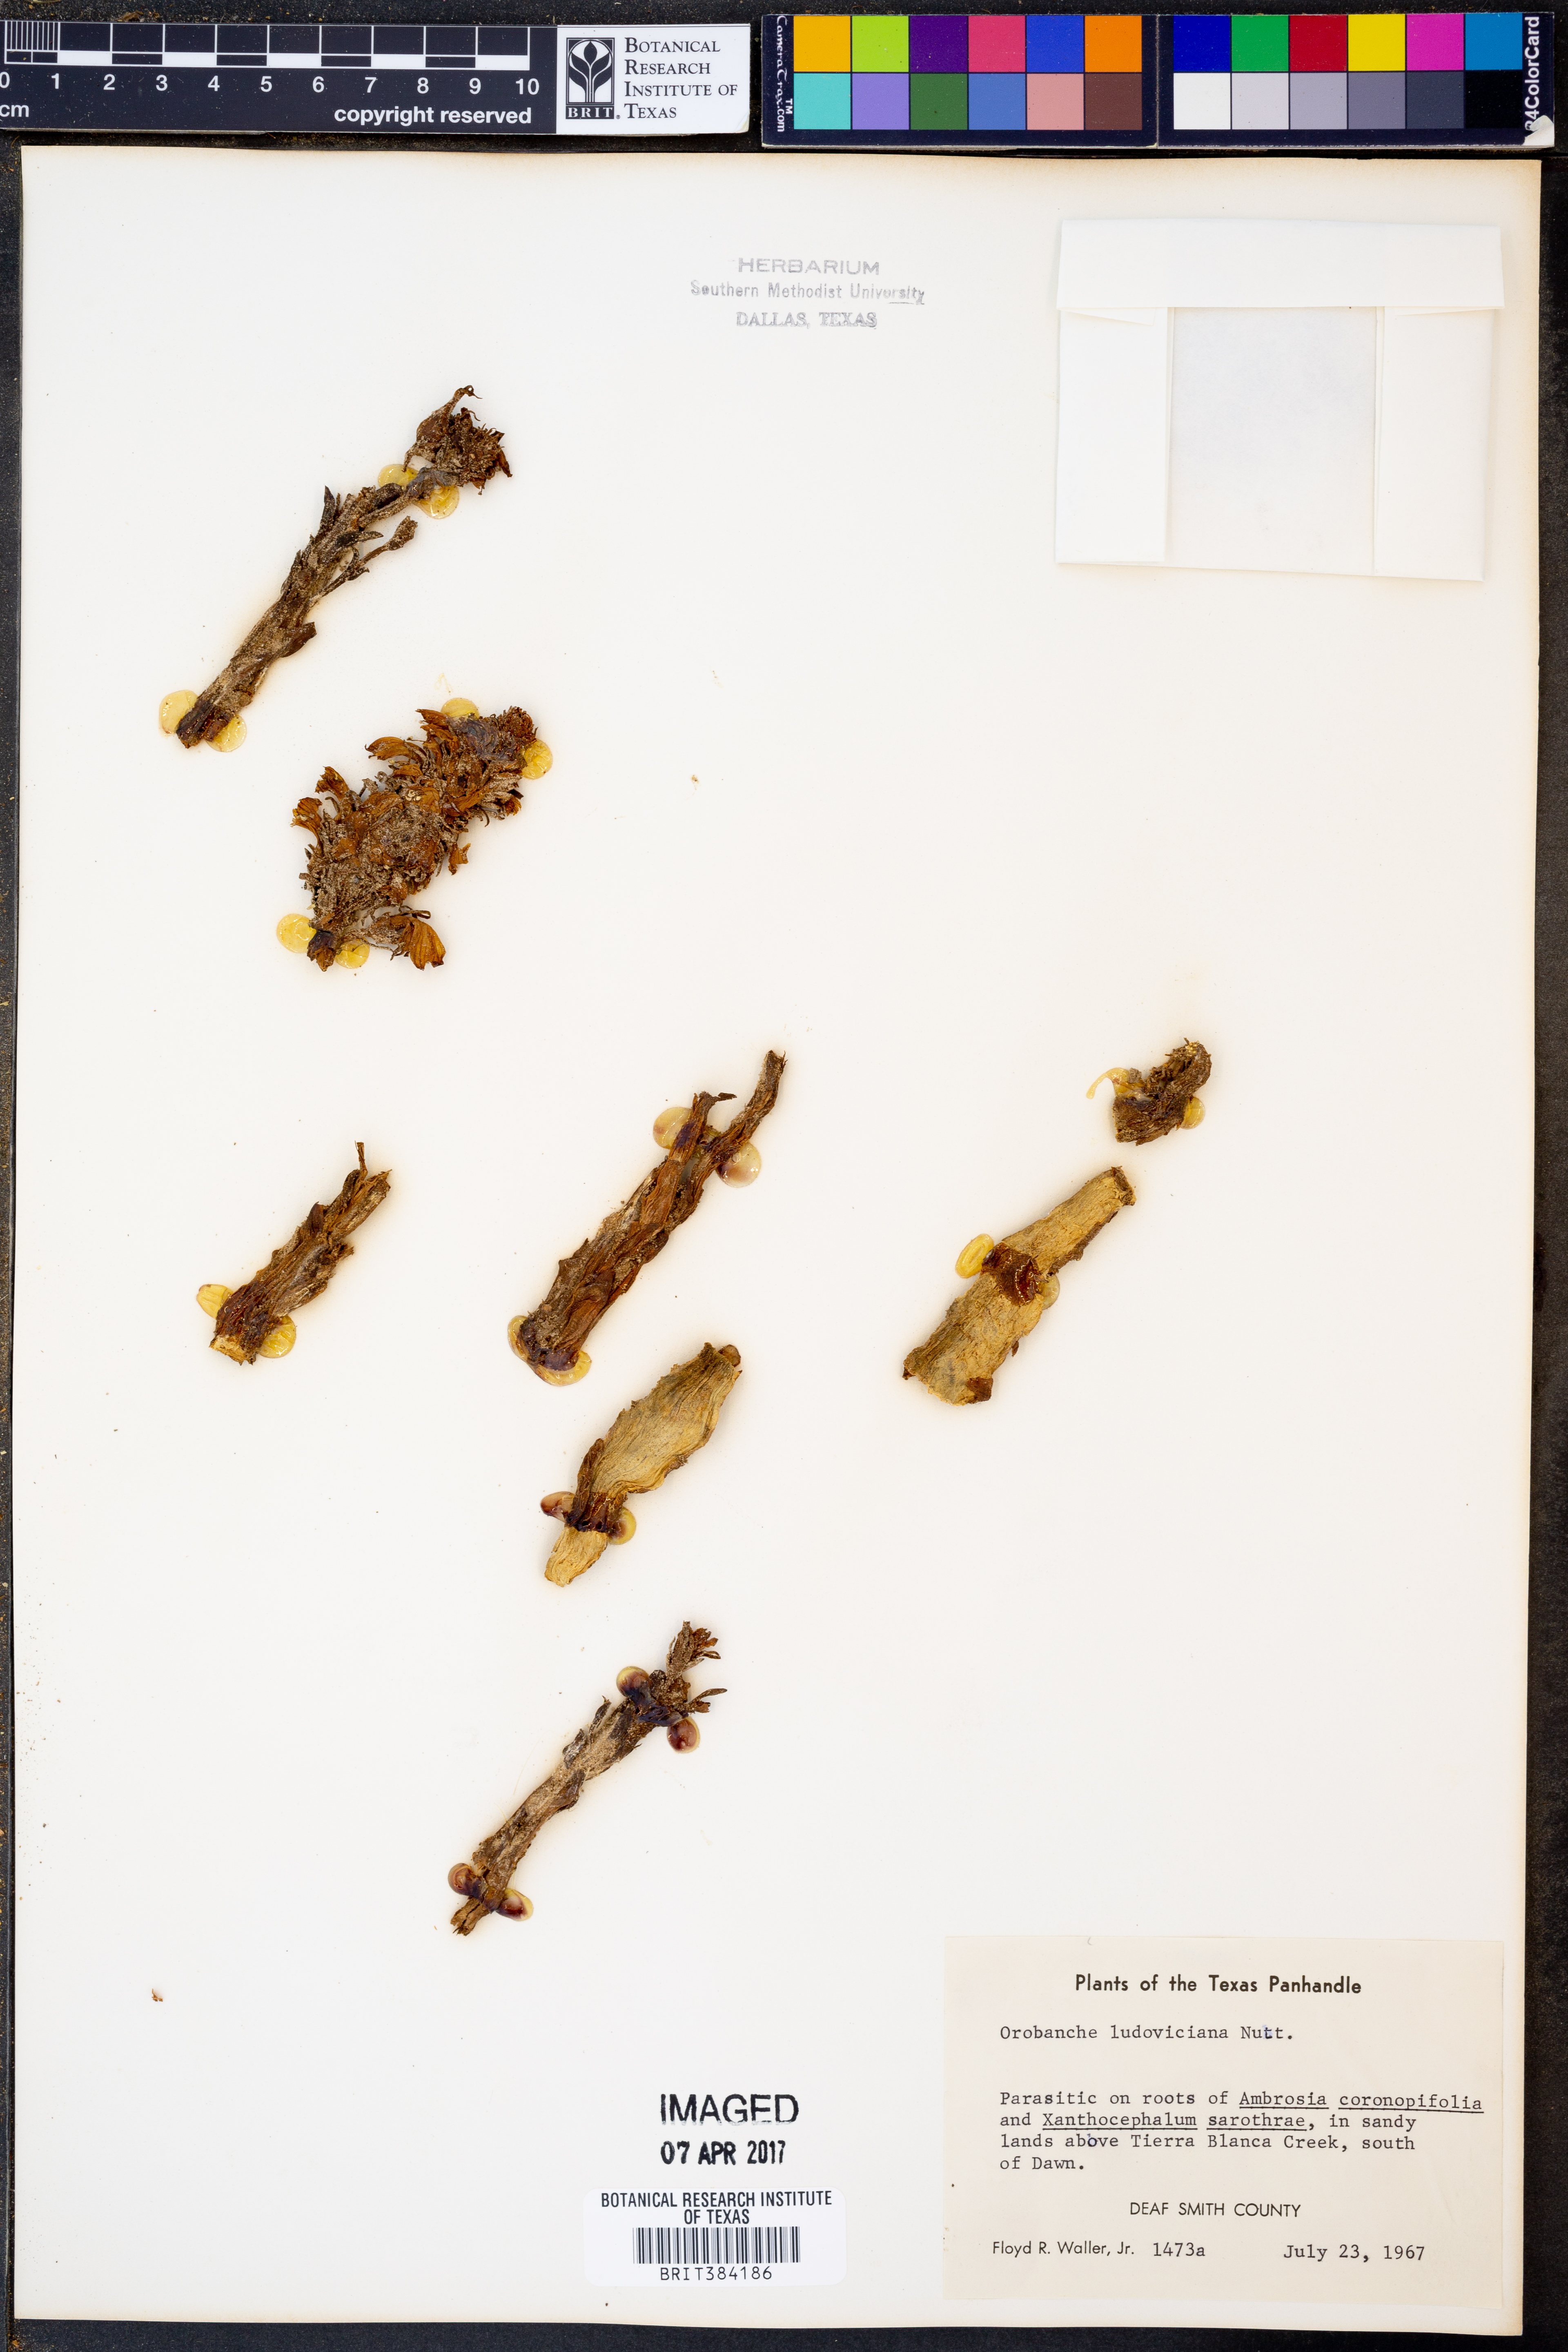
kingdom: Plantae
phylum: Tracheophyta
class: Magnoliopsida
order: Lamiales
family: Orobanchaceae
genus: Aphyllon
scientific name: Aphyllon ludovicianum
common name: Louisiana broomrape
